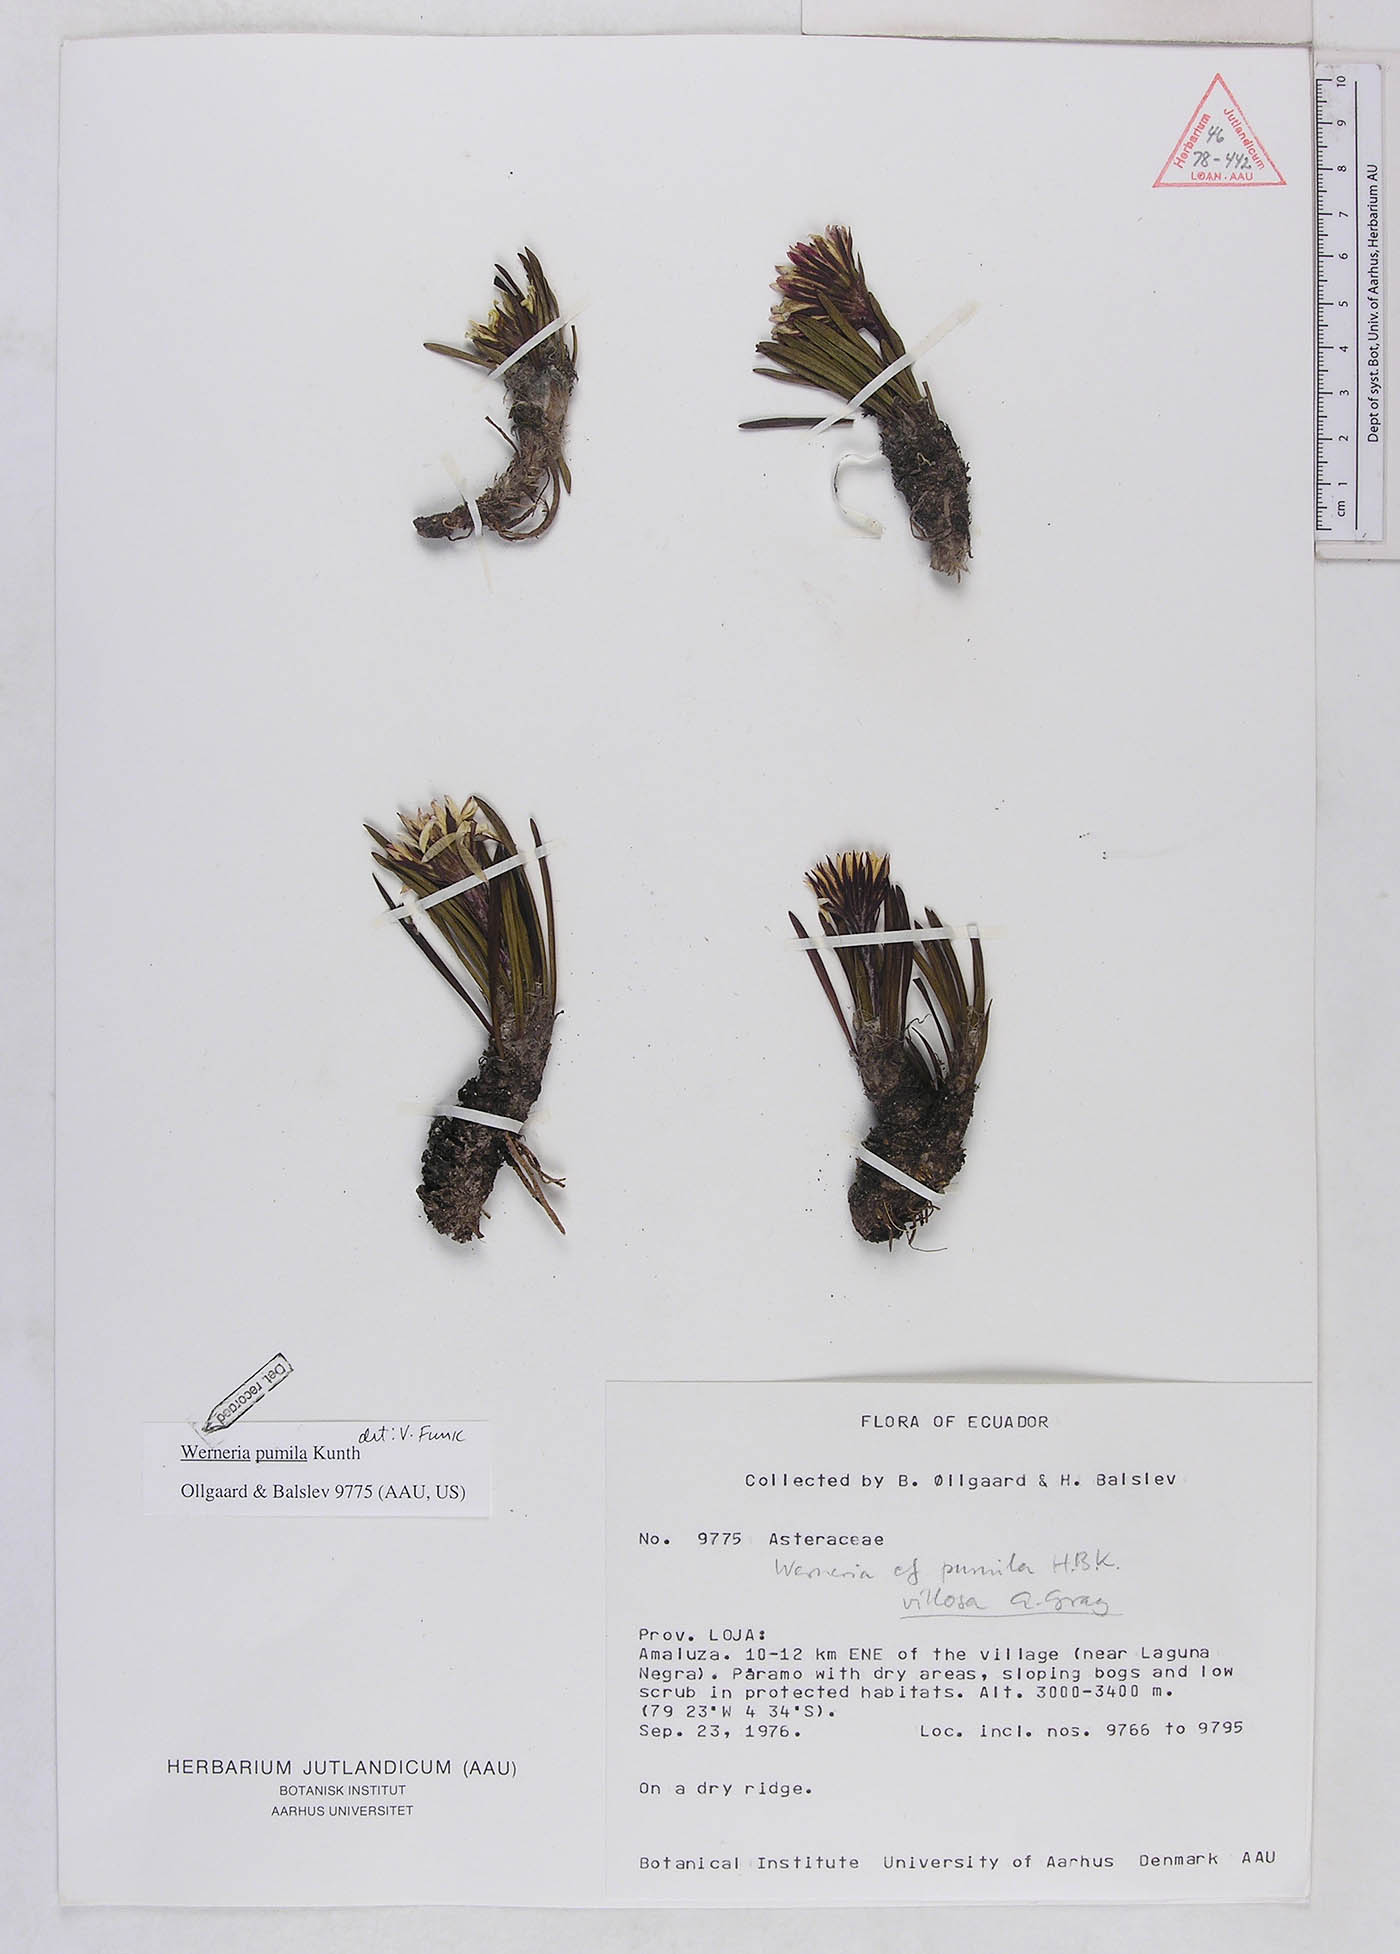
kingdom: Plantae
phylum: Tracheophyta
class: Magnoliopsida
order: Asterales
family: Asteraceae
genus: Rockhausenia
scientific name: Rockhausenia pumila
